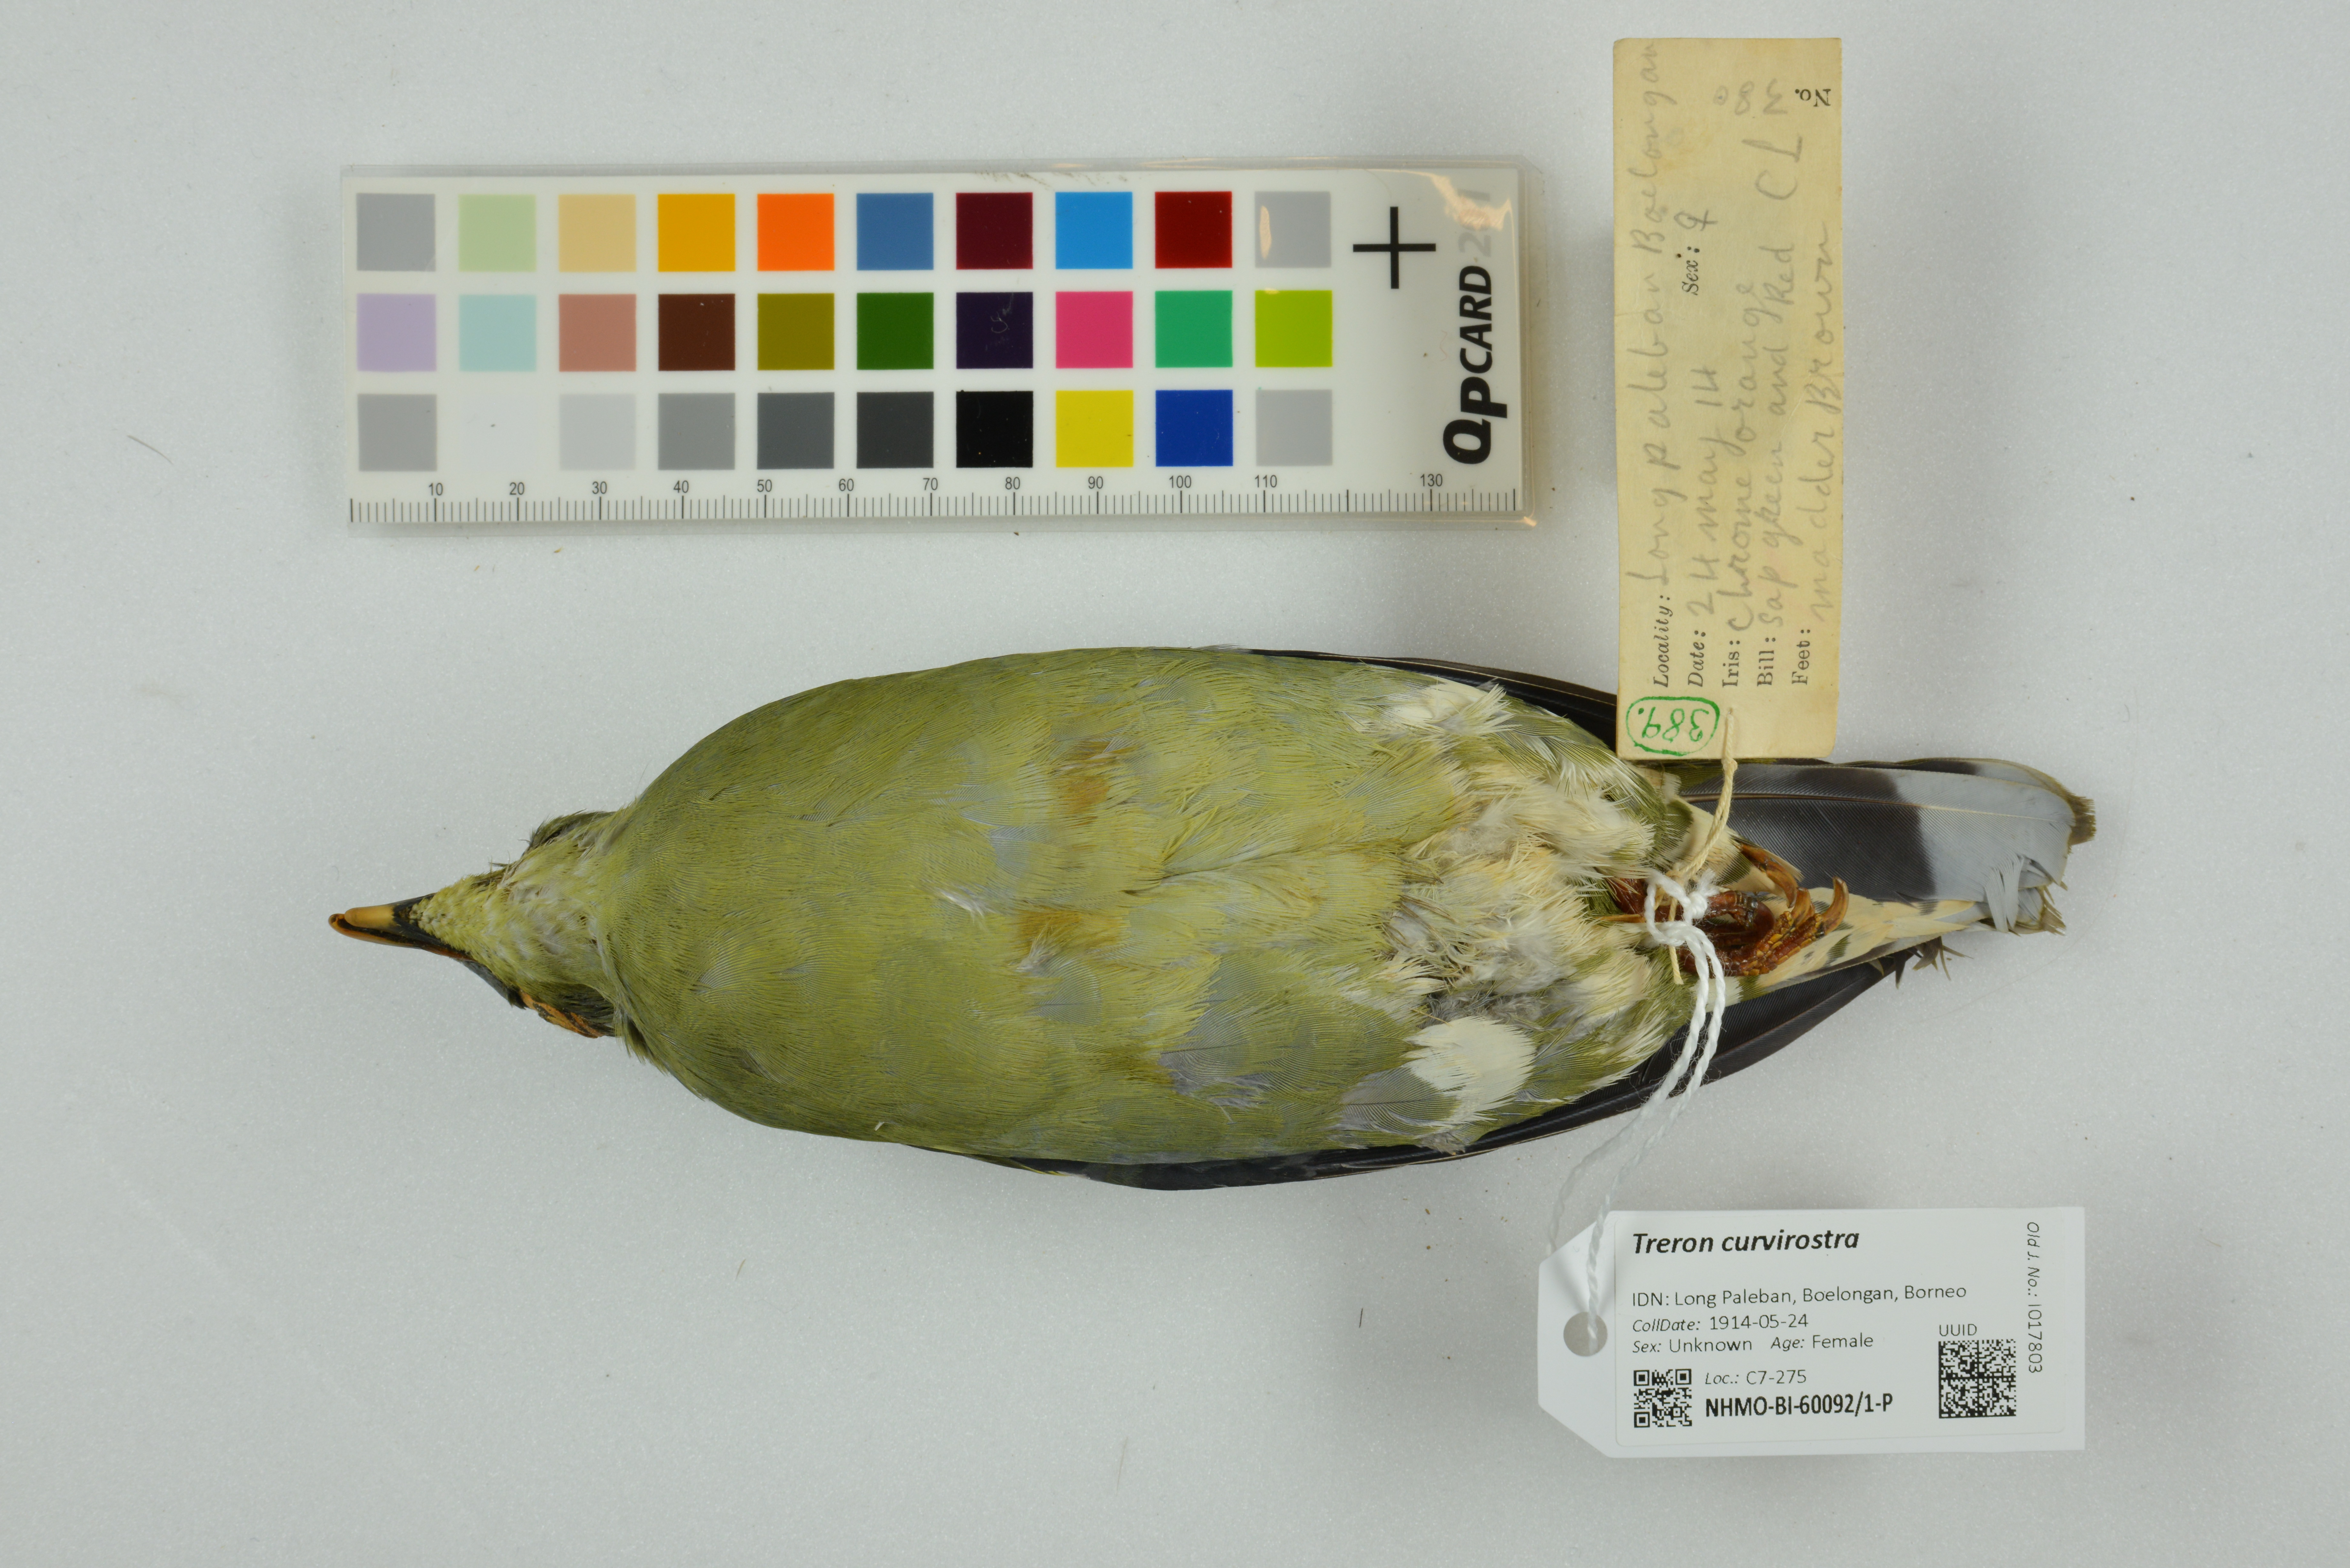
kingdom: Animalia
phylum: Chordata
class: Aves
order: Columbiformes
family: Columbidae
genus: Treron
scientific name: Treron curvirostra
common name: Thick-billed green pigeon
